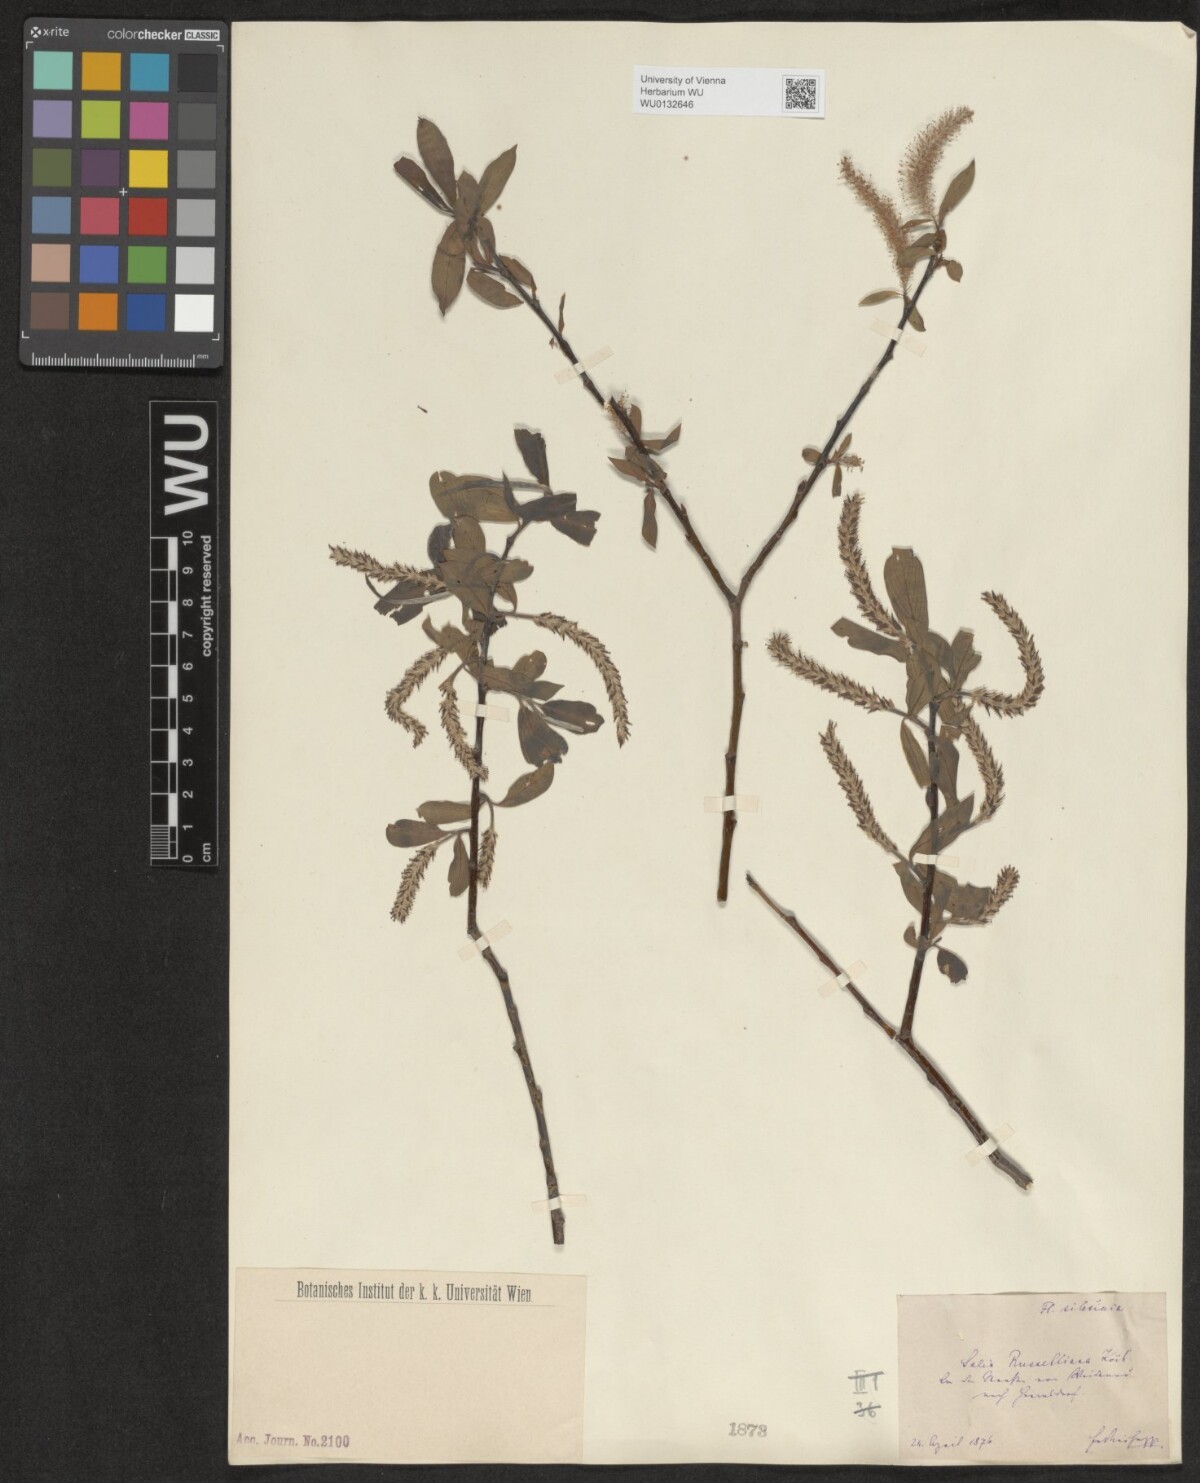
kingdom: Plantae
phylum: Tracheophyta
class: Magnoliopsida
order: Malpighiales
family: Salicaceae
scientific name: Salicaceae
